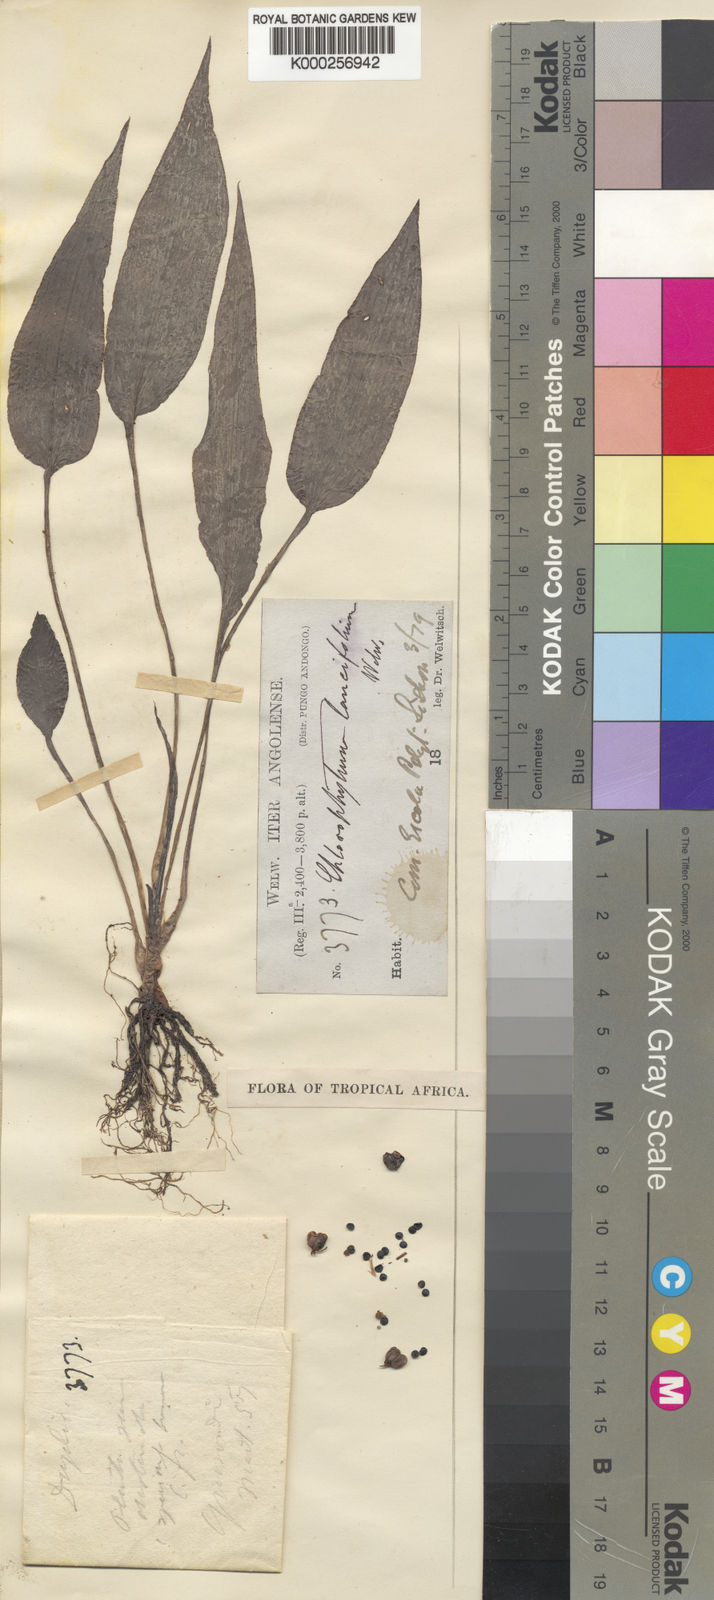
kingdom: Plantae
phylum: Tracheophyta
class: Liliopsida
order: Asparagales
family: Asparagaceae
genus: Chlorophytum
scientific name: Chlorophytum lancifolium
